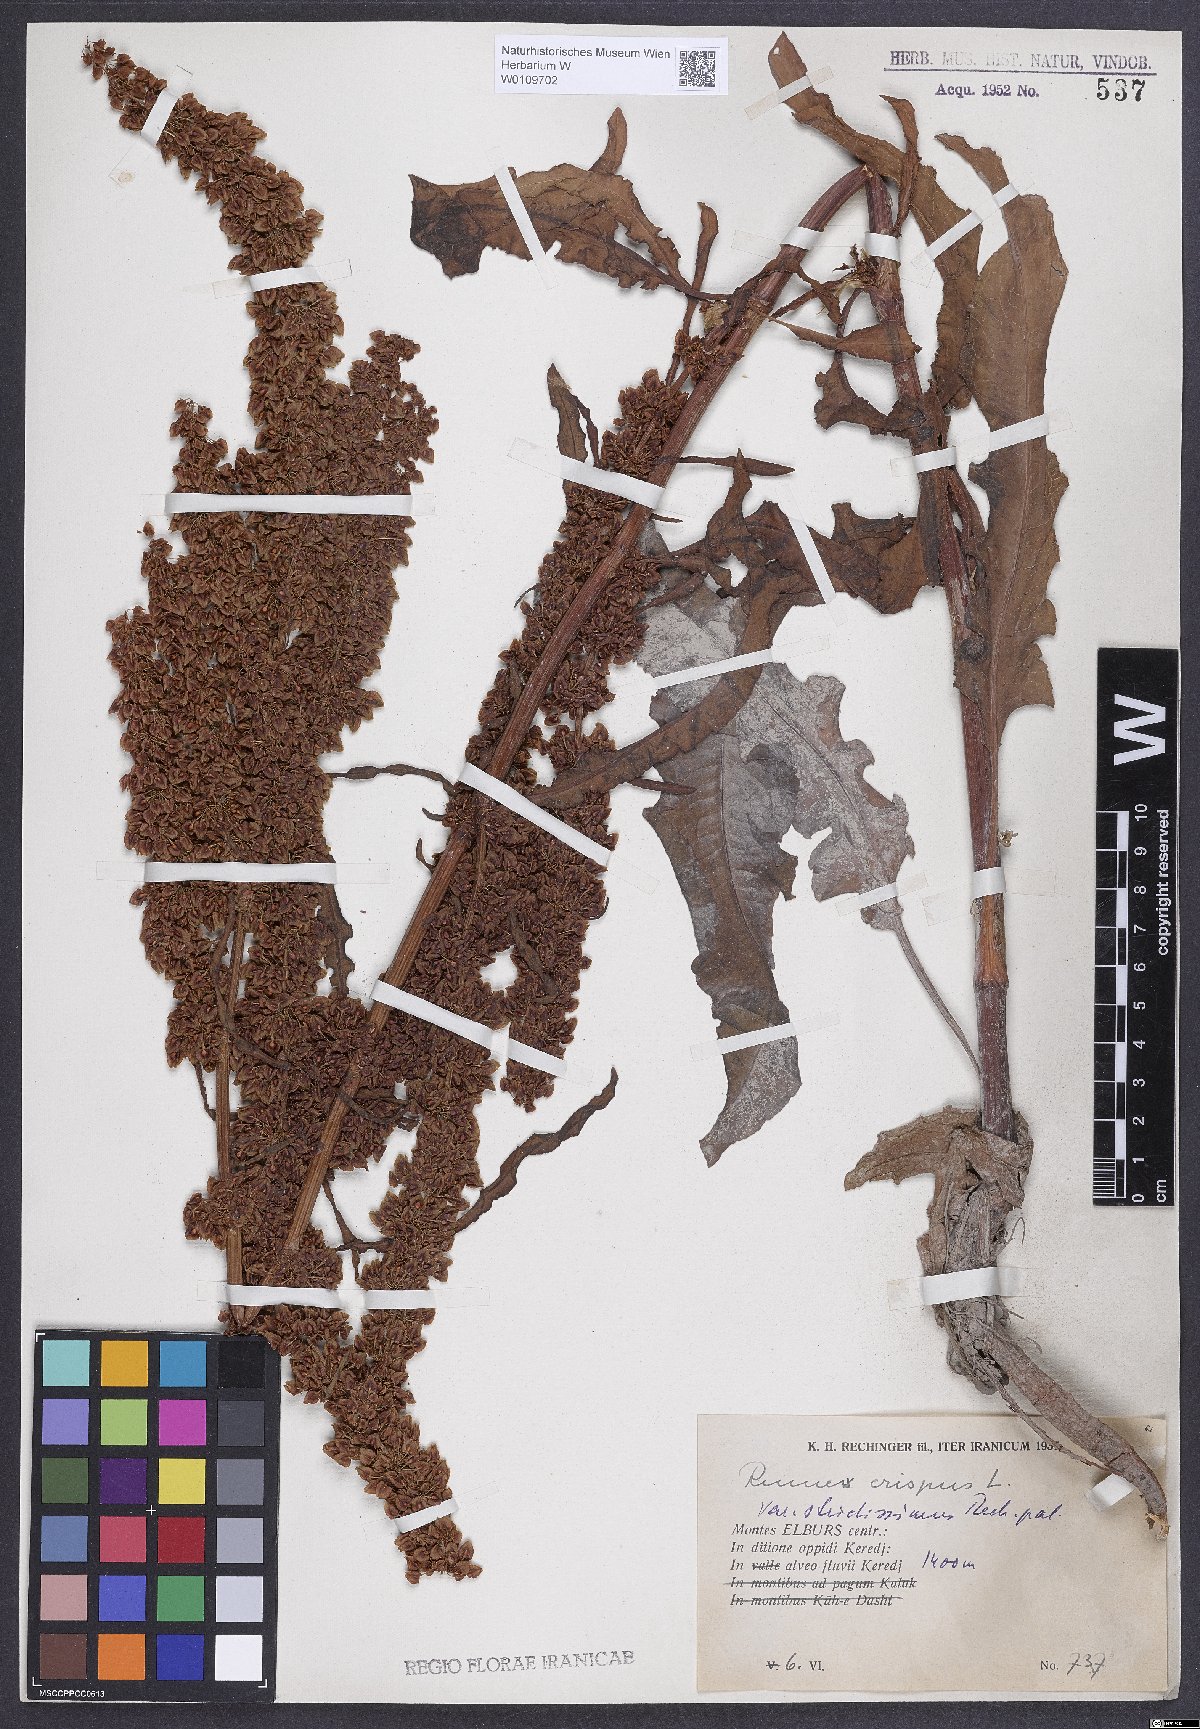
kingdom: Plantae
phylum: Tracheophyta
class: Magnoliopsida
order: Caryophyllales
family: Polygonaceae
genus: Rumex
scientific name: Rumex crispus
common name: Curled dock
